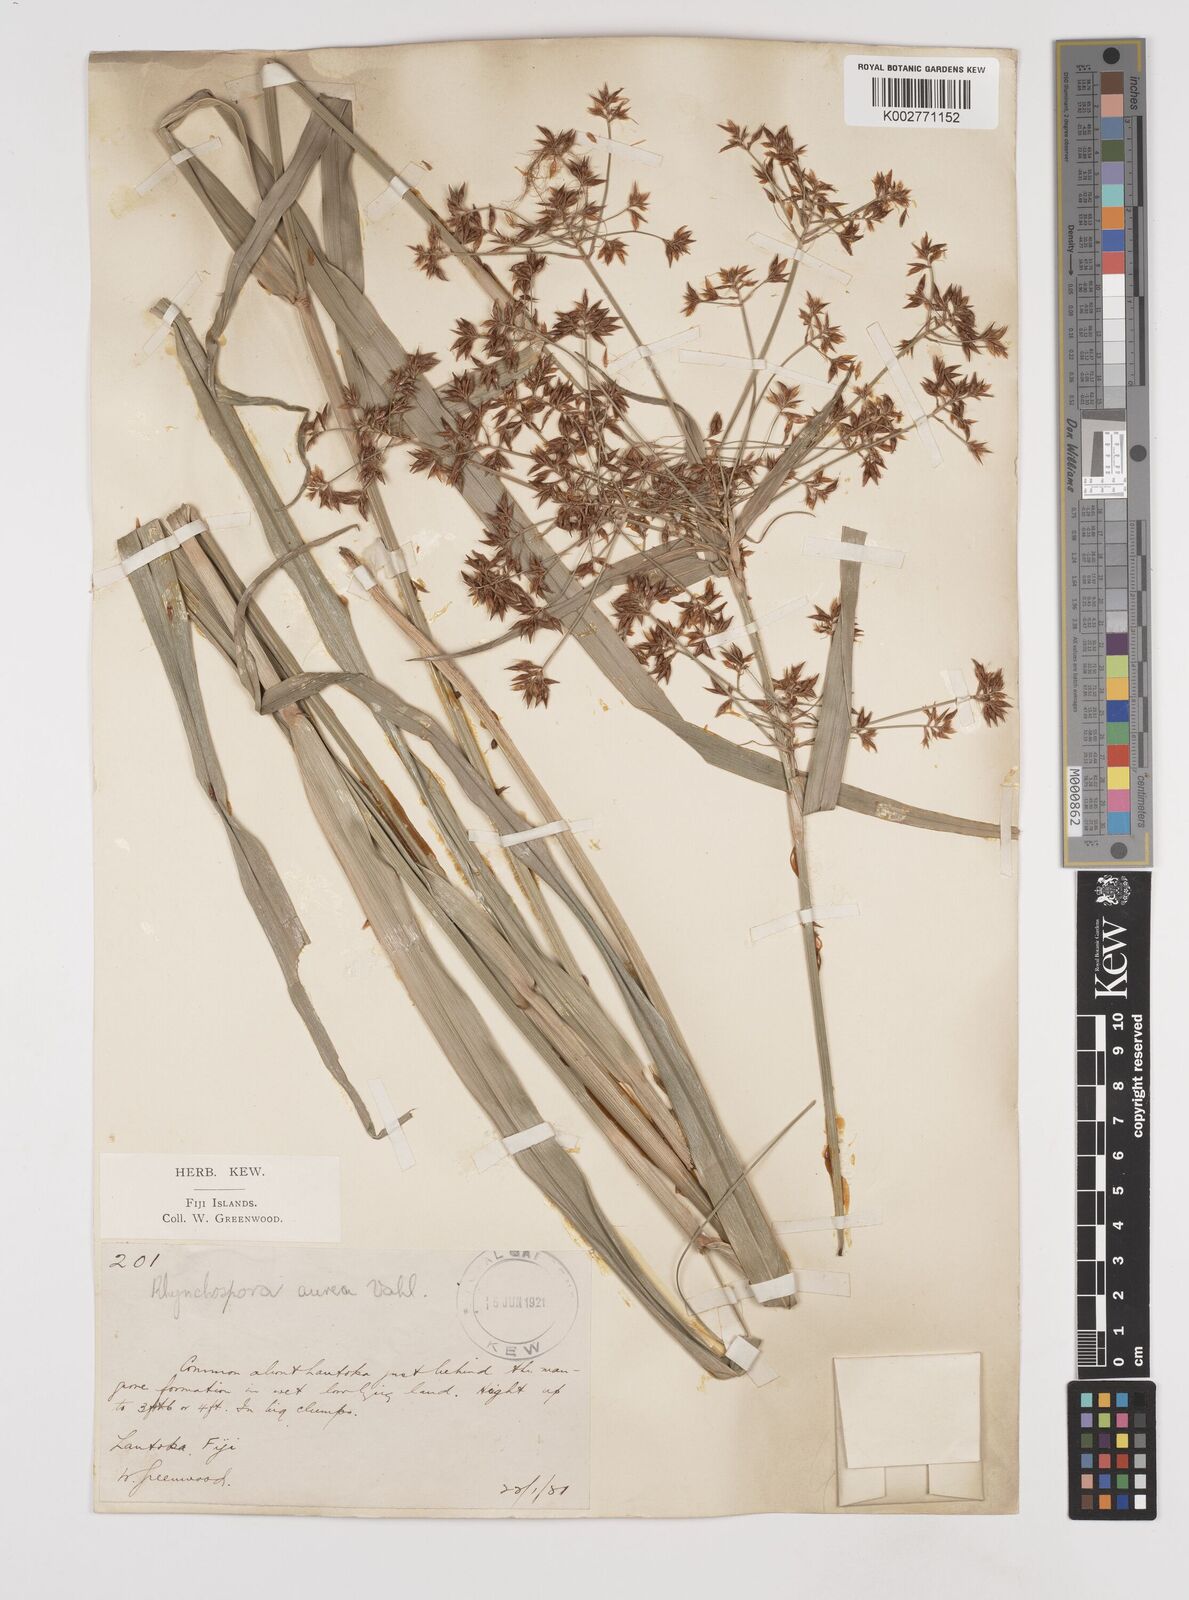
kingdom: Plantae
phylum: Tracheophyta
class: Liliopsida
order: Poales
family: Cyperaceae
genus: Rhynchospora
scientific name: Rhynchospora corymbosa
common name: Golden beak sedge
